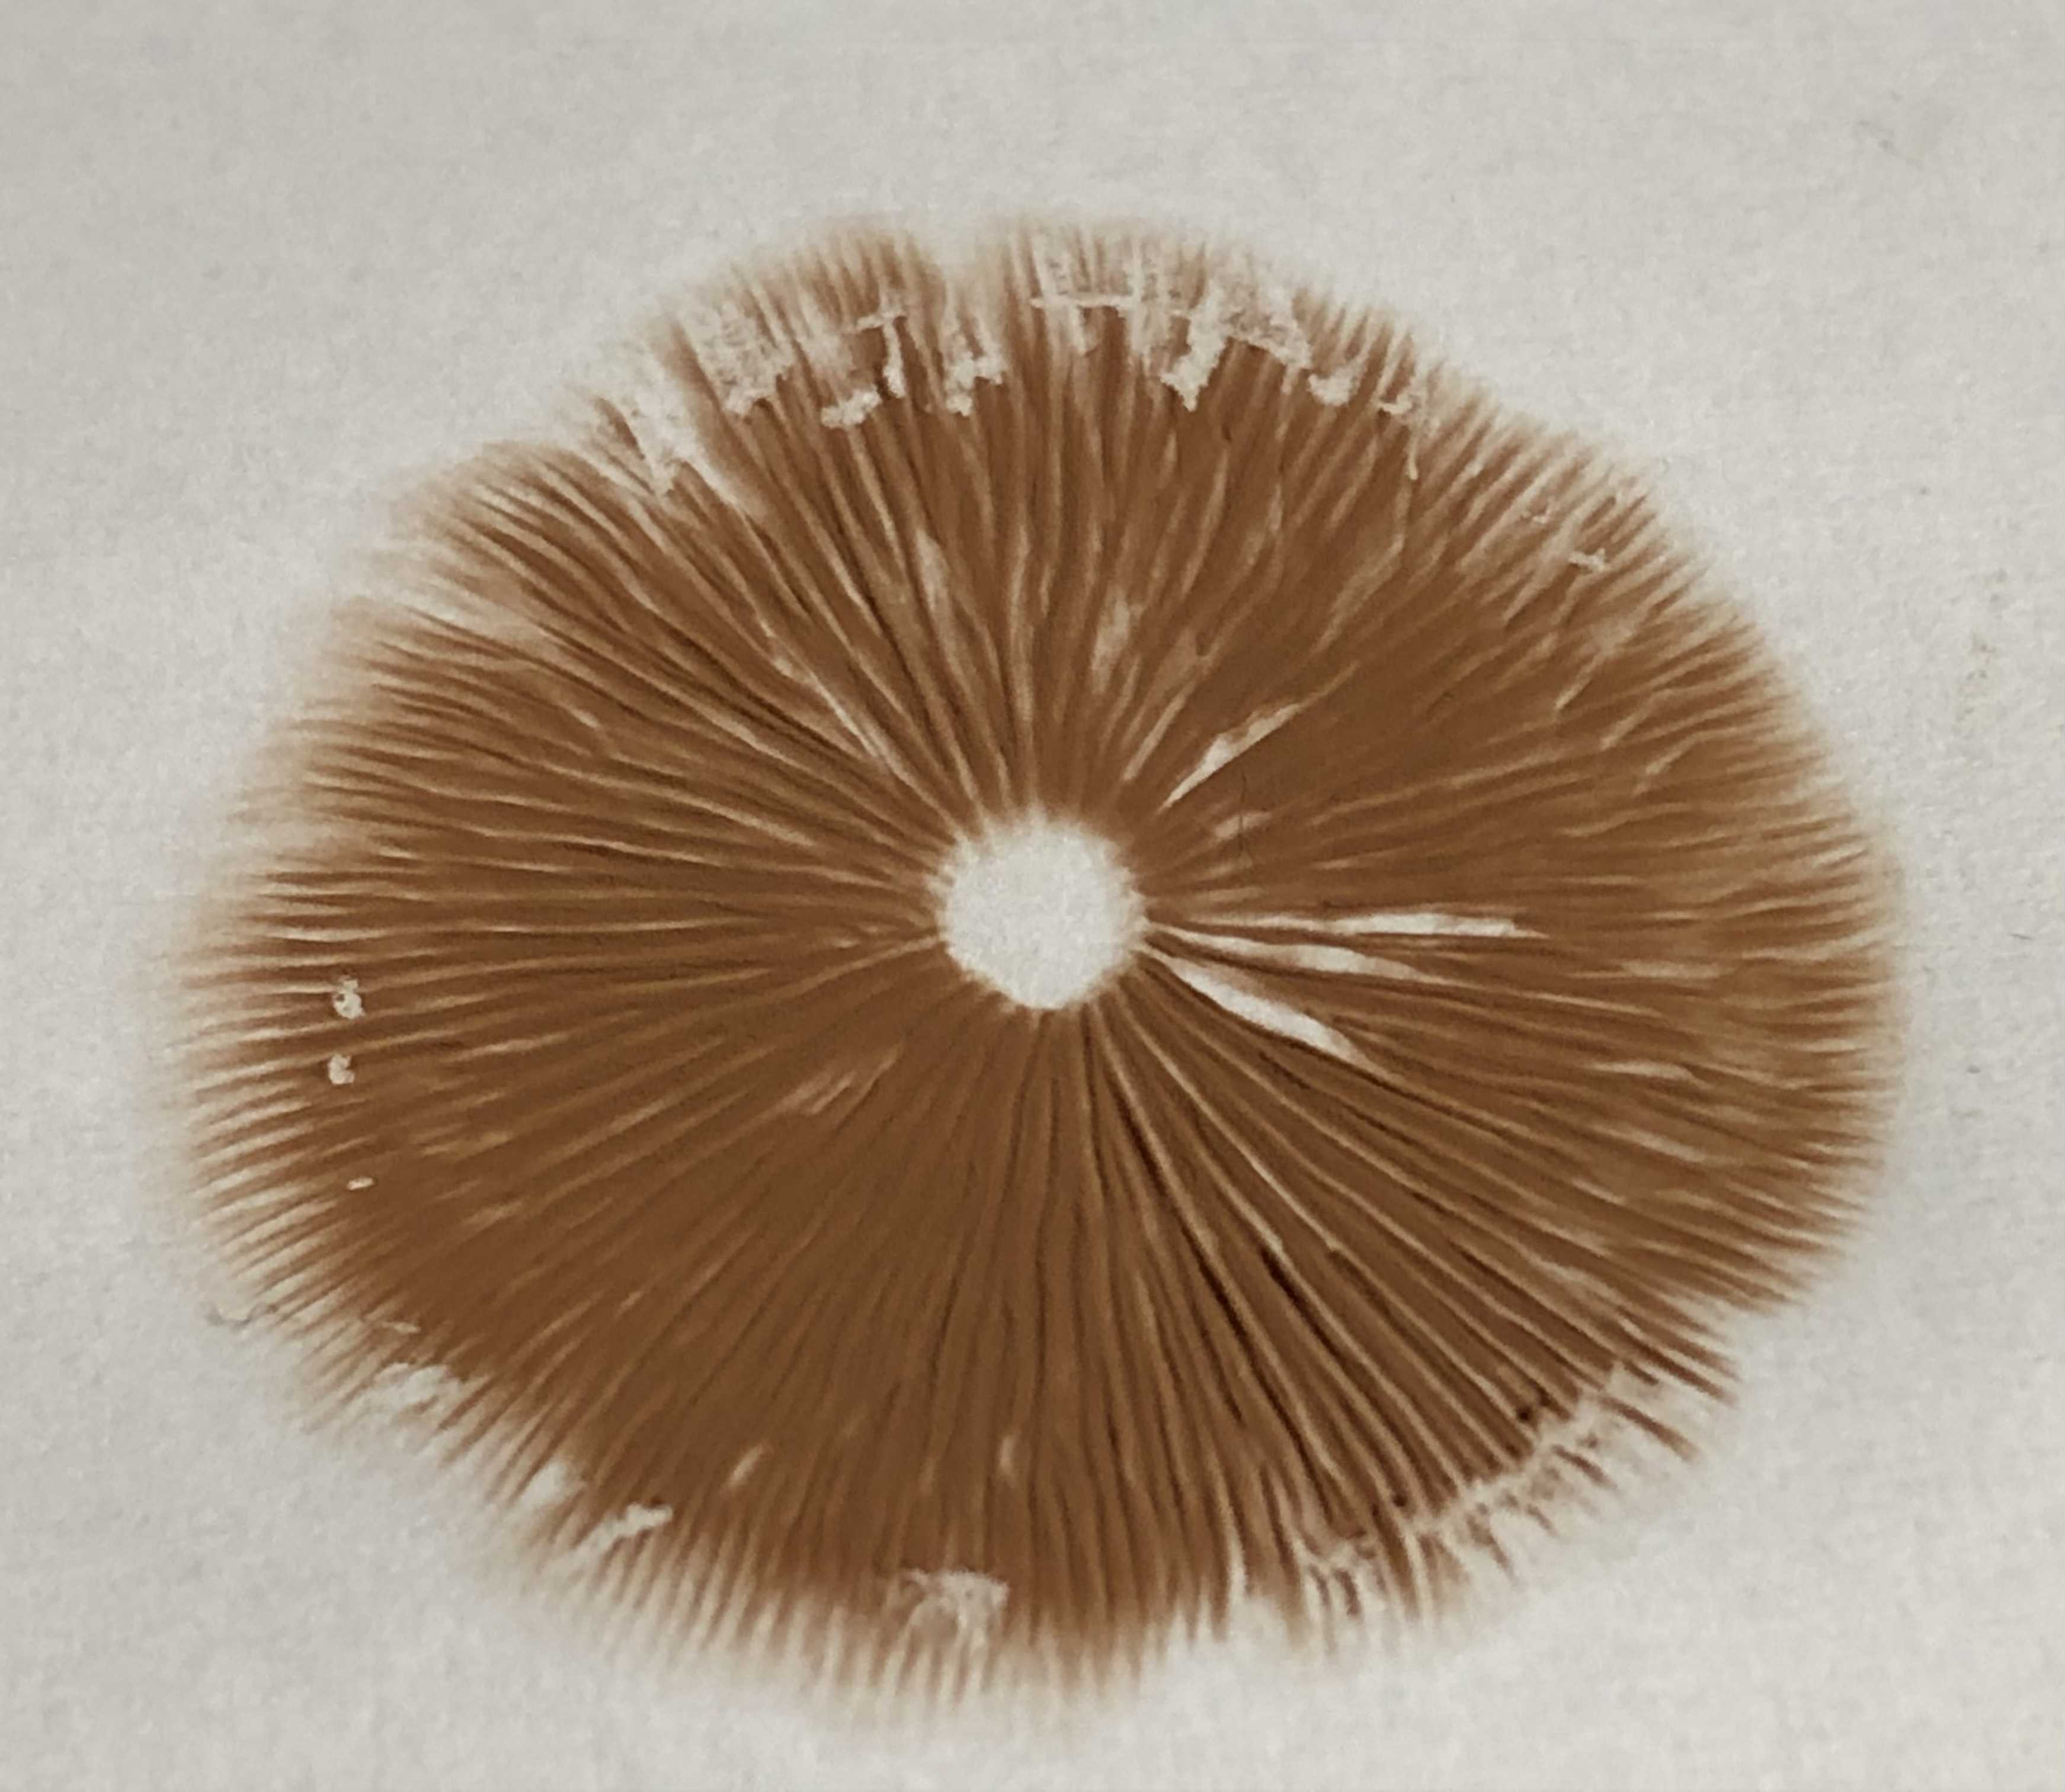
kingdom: Fungi
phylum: Basidiomycota
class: Agaricomycetes
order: Agaricales
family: Entolomataceae
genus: Entoloma
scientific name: Entoloma
